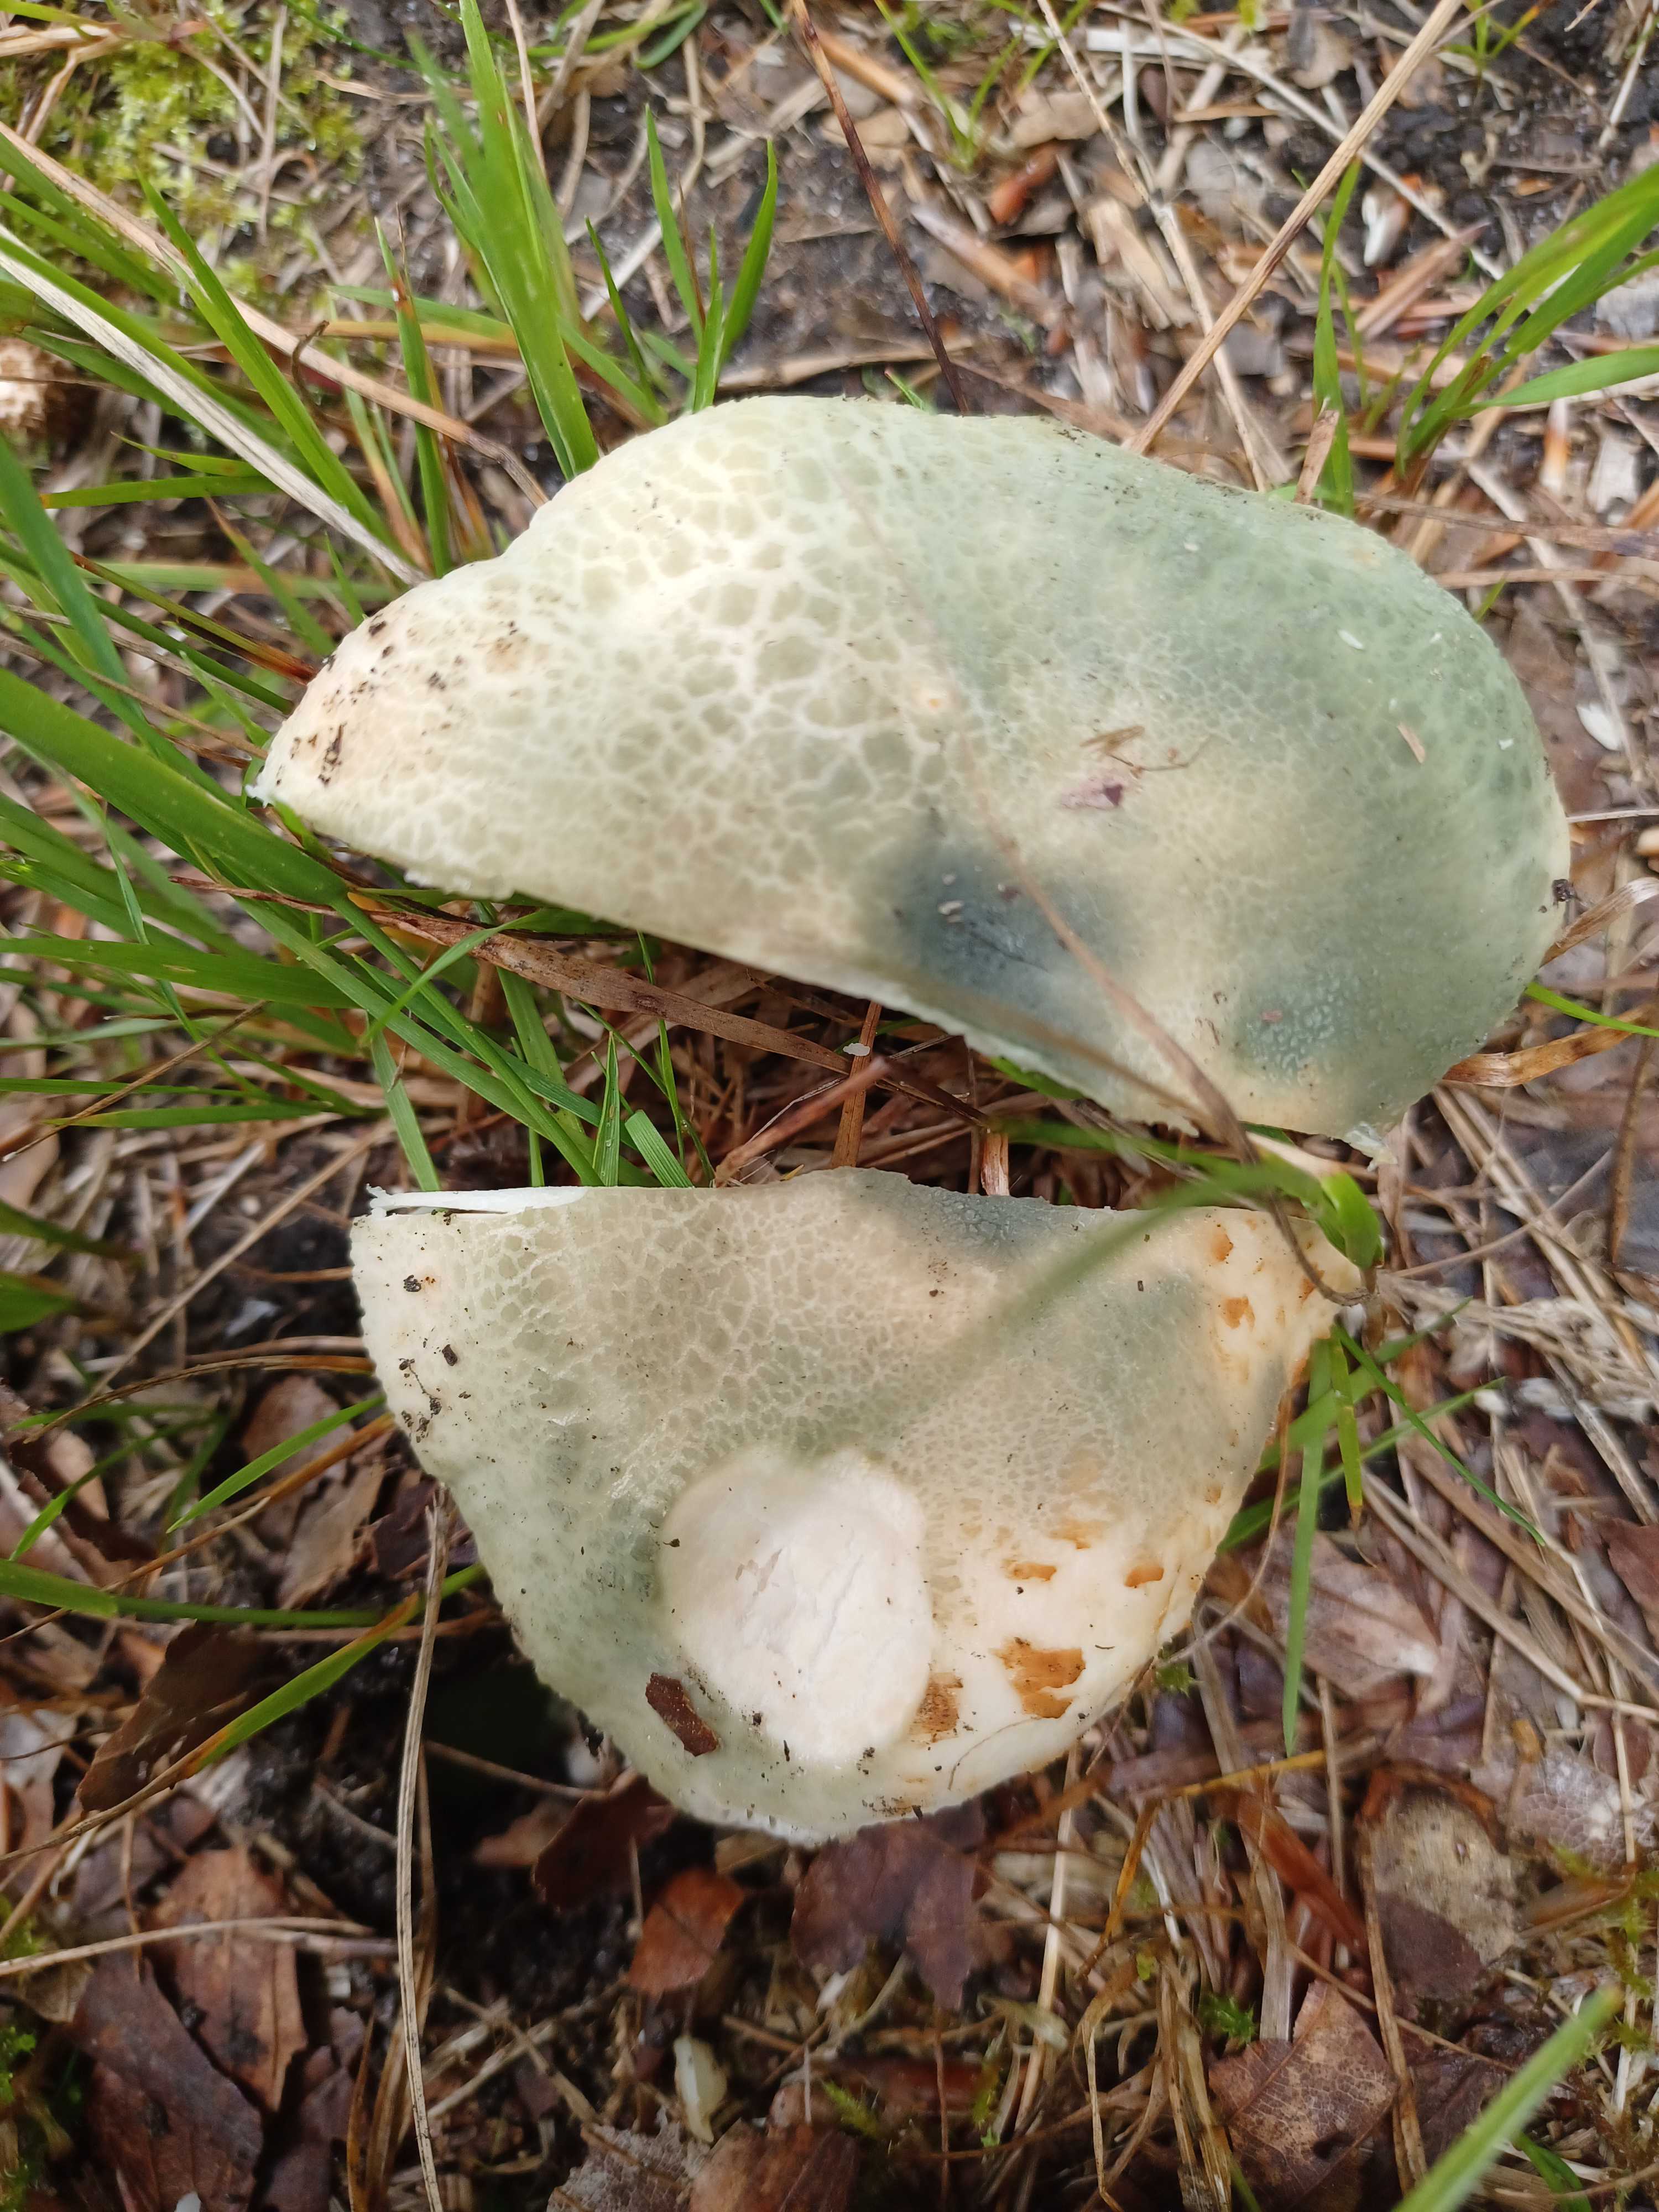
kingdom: Fungi
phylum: Basidiomycota
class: Agaricomycetes
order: Russulales
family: Russulaceae
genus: Russula
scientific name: Russula virescens
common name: spanskgrøn skørhat
